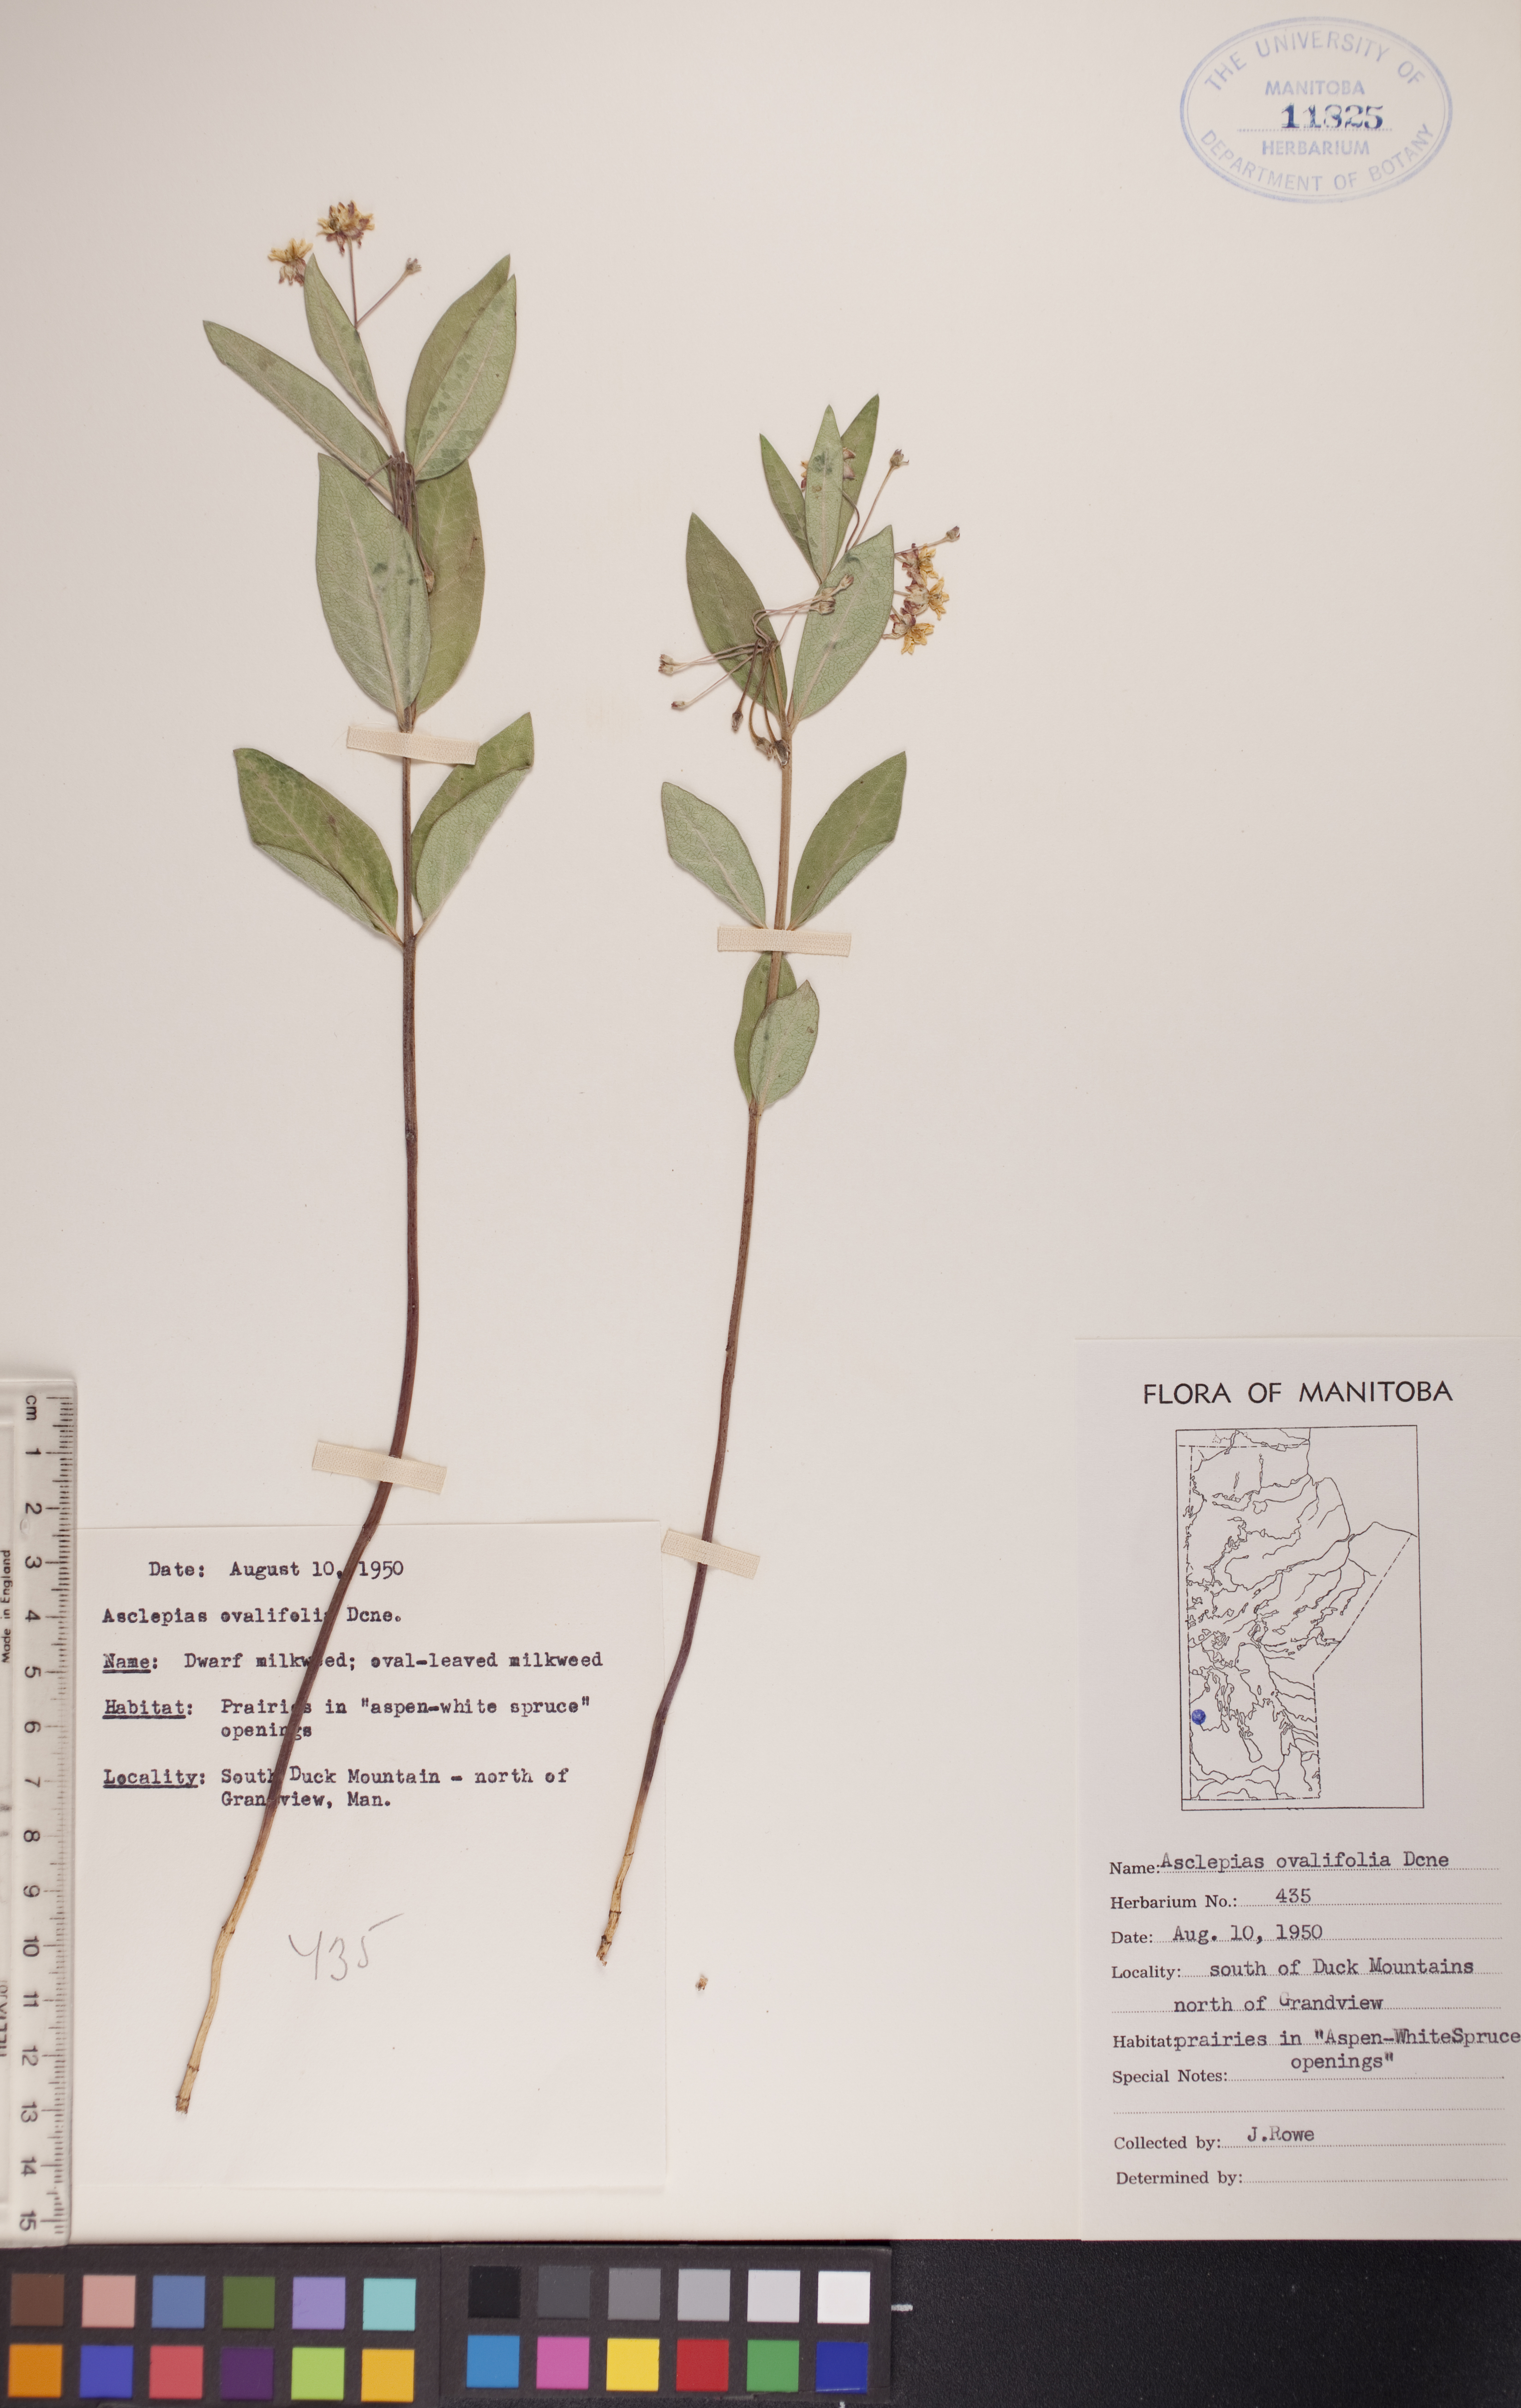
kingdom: Plantae
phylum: Tracheophyta
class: Magnoliopsida
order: Gentianales
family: Apocynaceae
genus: Asclepias
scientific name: Asclepias ovalifolia
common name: Dwarf milkweed
